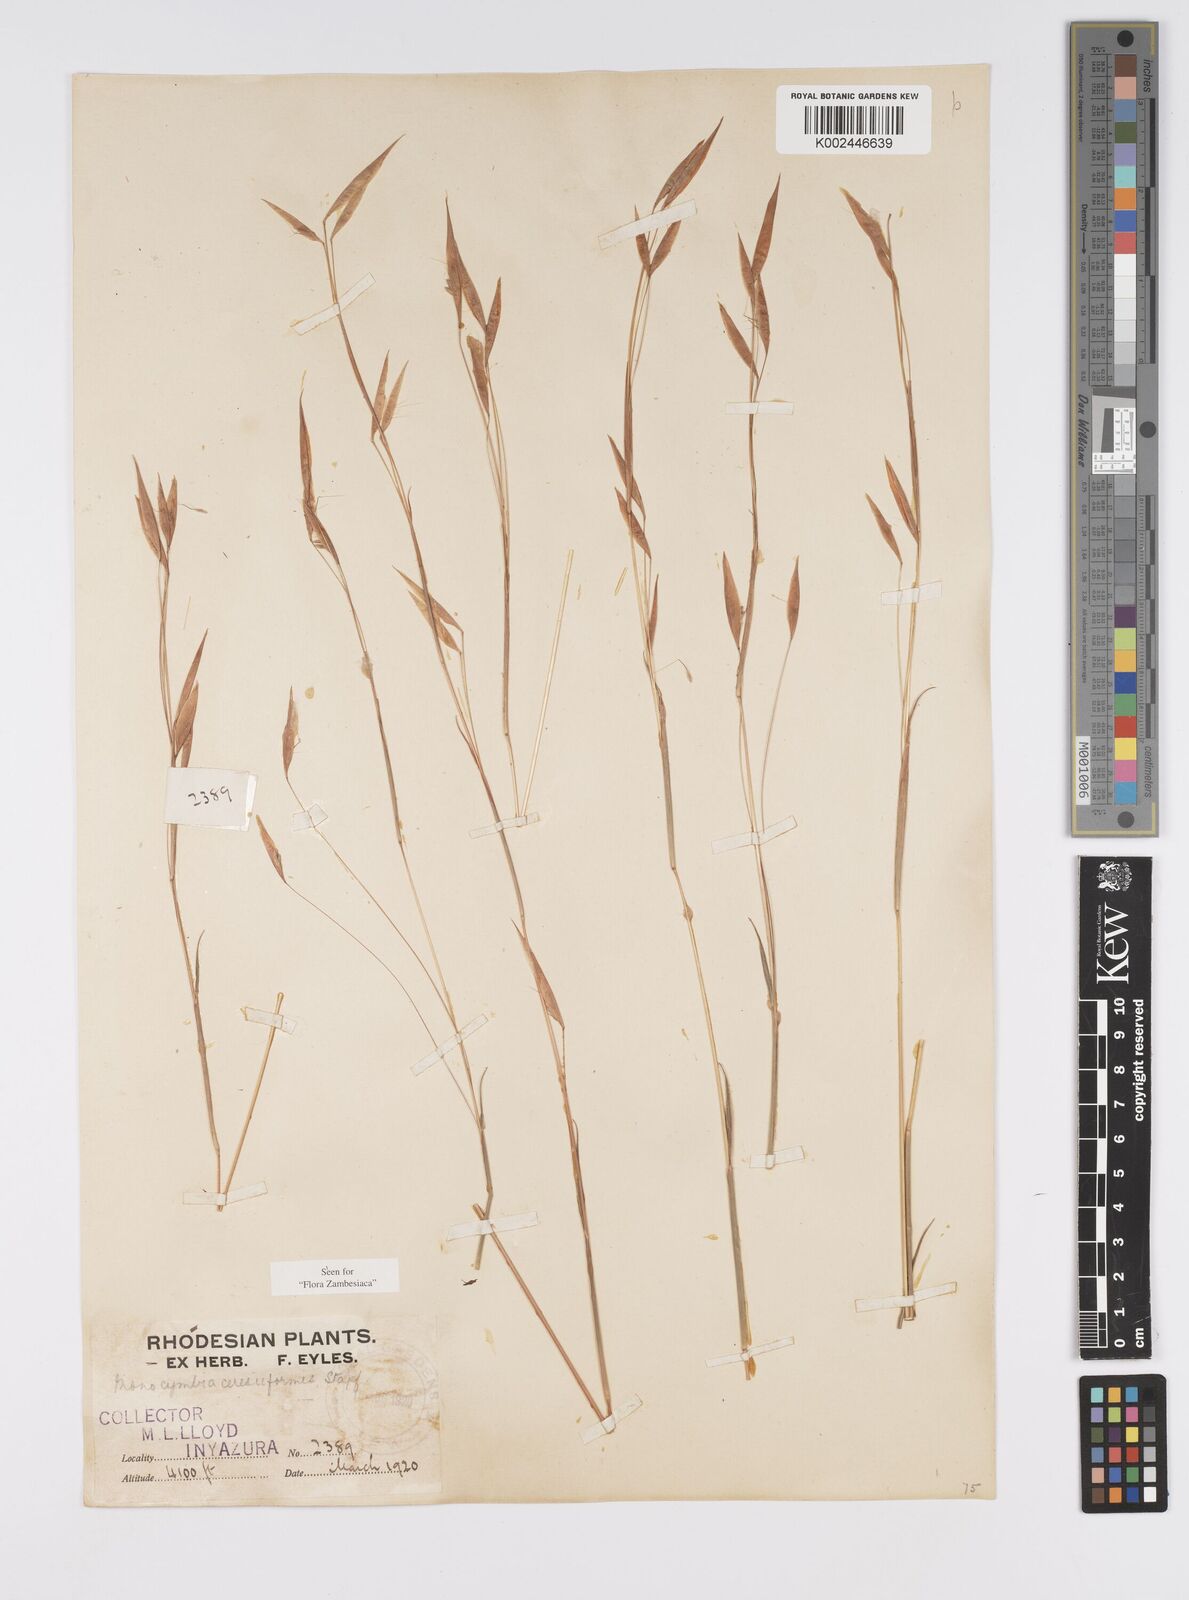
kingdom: Plantae
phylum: Tracheophyta
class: Liliopsida
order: Poales
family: Poaceae
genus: Monocymbium
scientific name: Monocymbium ceresiiforme
